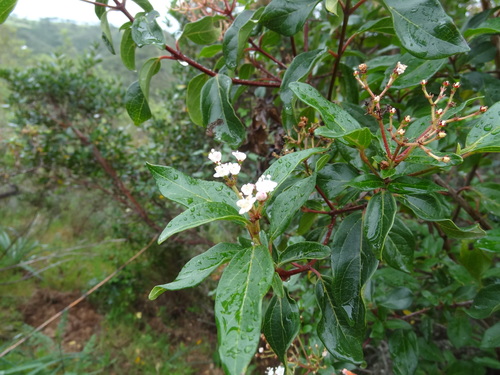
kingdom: Plantae
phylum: Tracheophyta
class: Magnoliopsida
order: Dipsacales
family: Viburnaceae
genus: Viburnum
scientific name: Viburnum tinus
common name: Laurustinus
